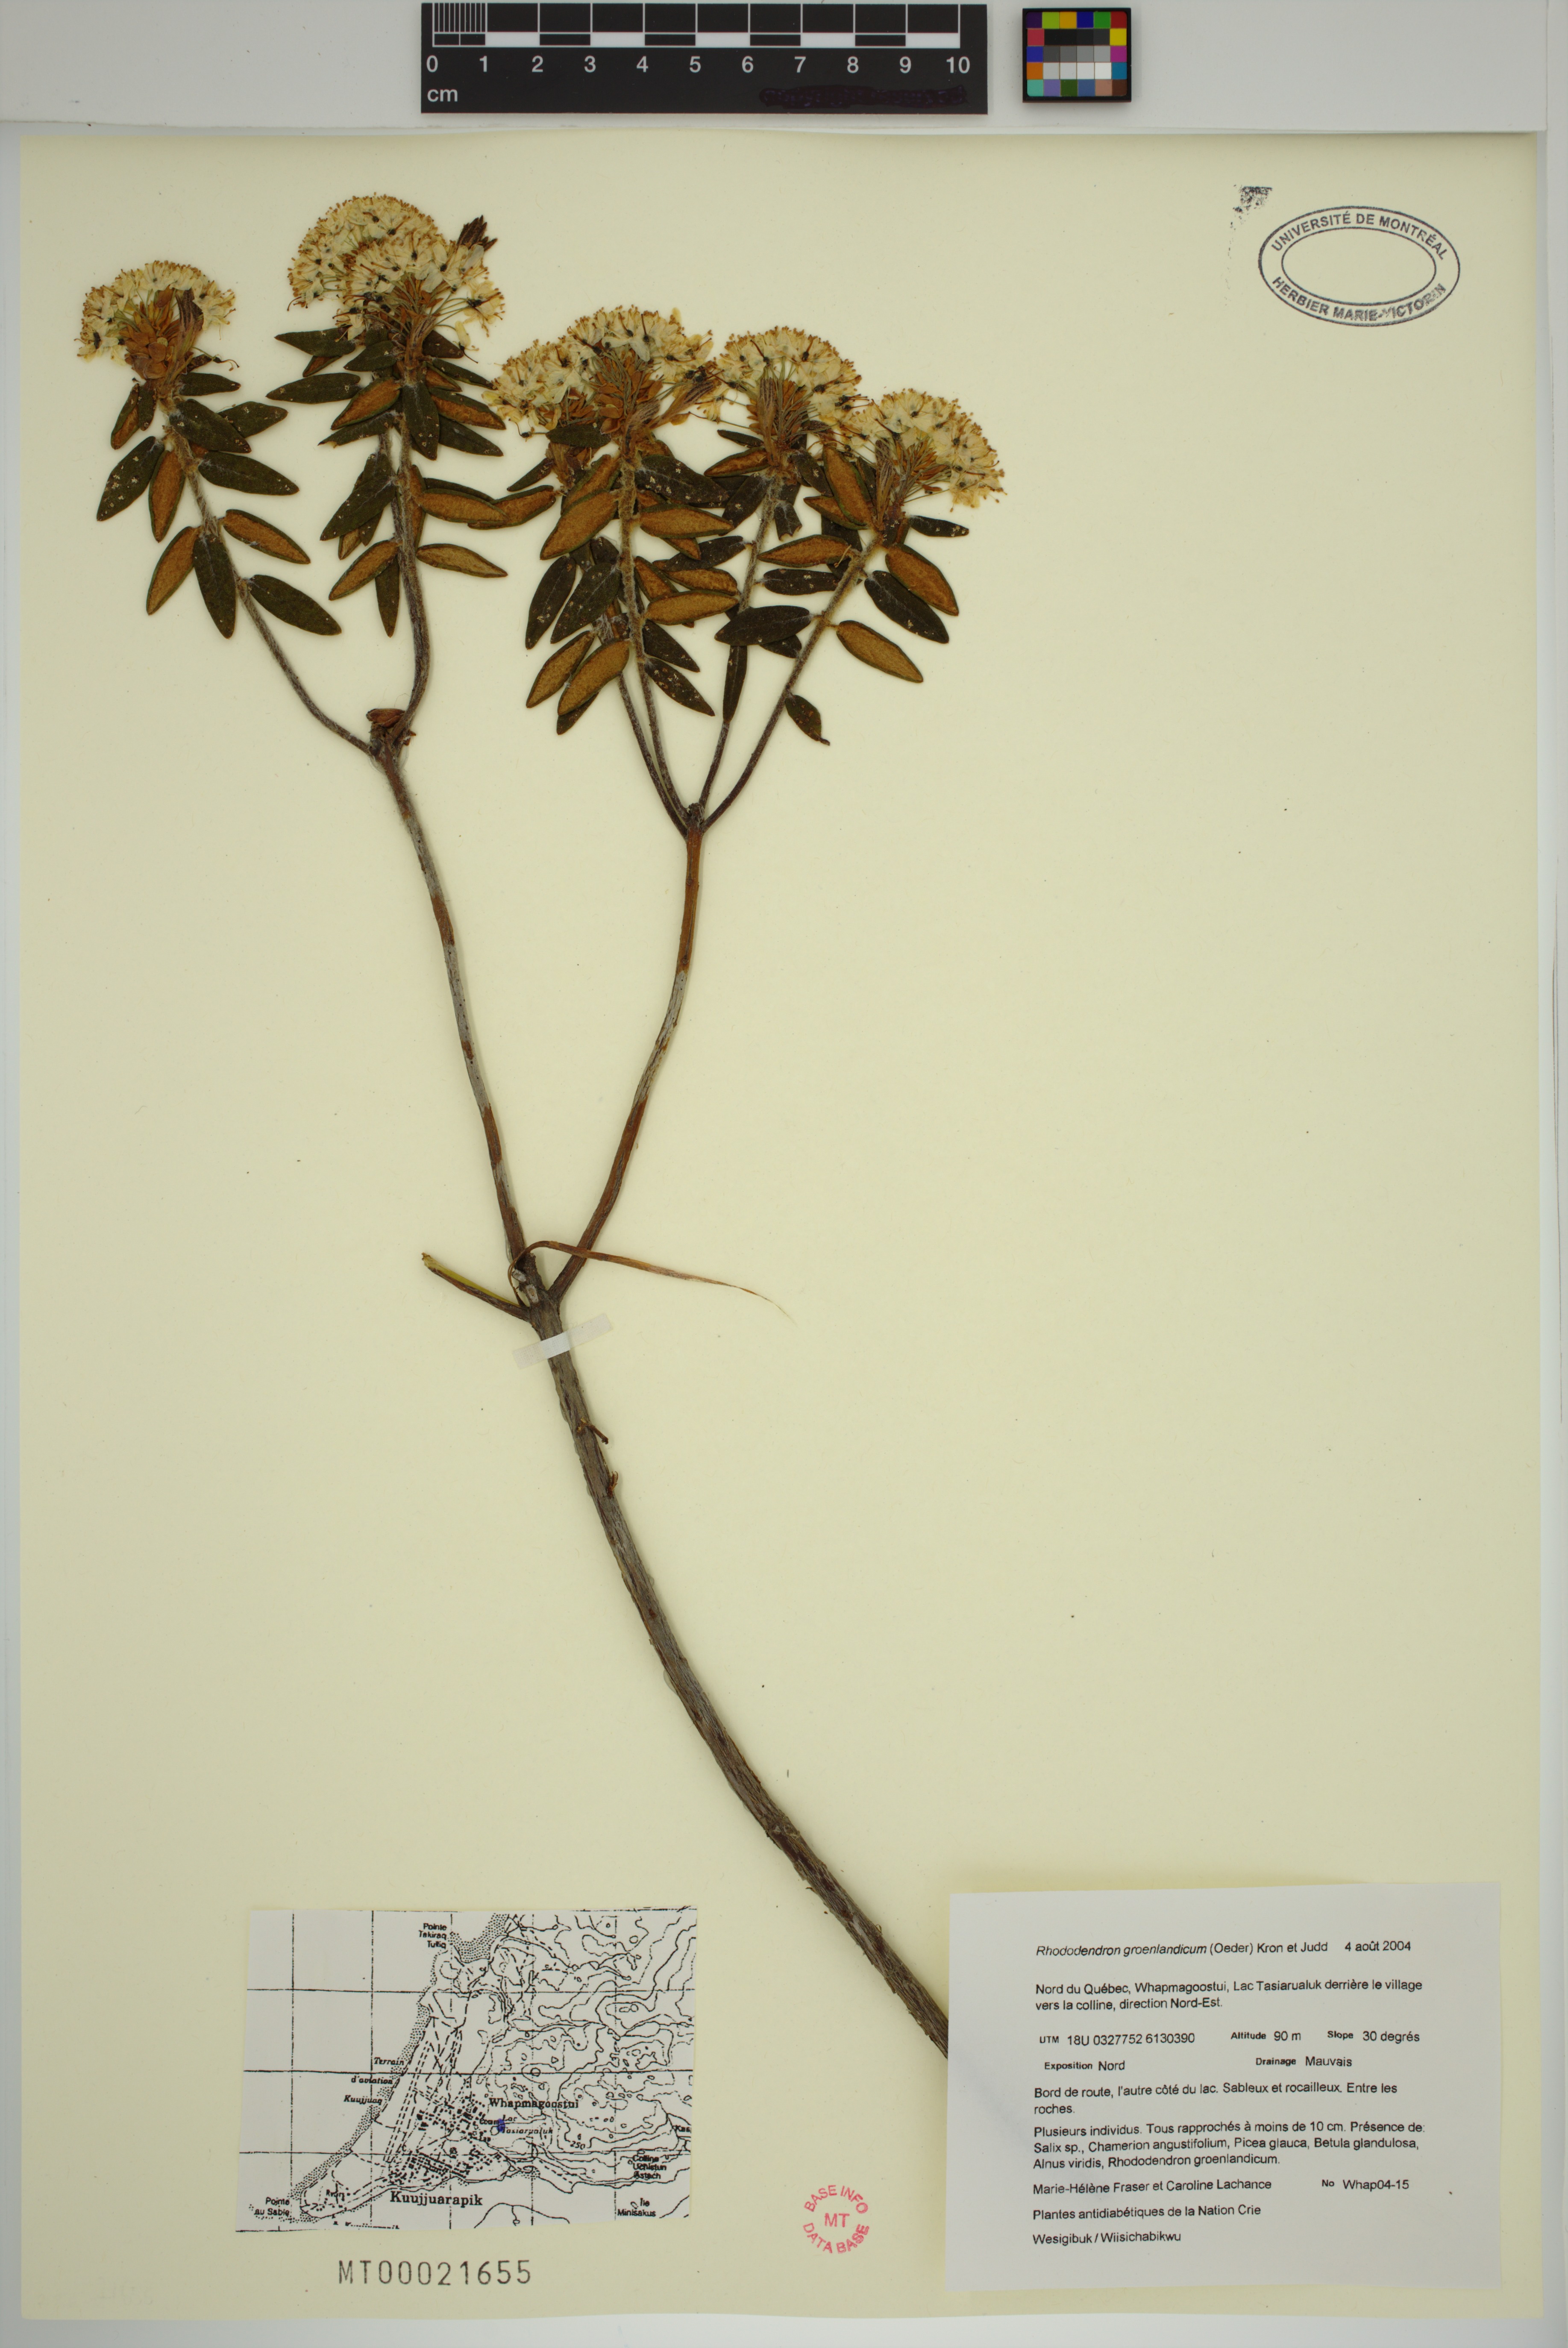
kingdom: Plantae
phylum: Tracheophyta
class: Magnoliopsida
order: Ericales
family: Ericaceae
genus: Rhododendron
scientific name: Rhododendron groenlandicum
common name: Bog labrador tea
